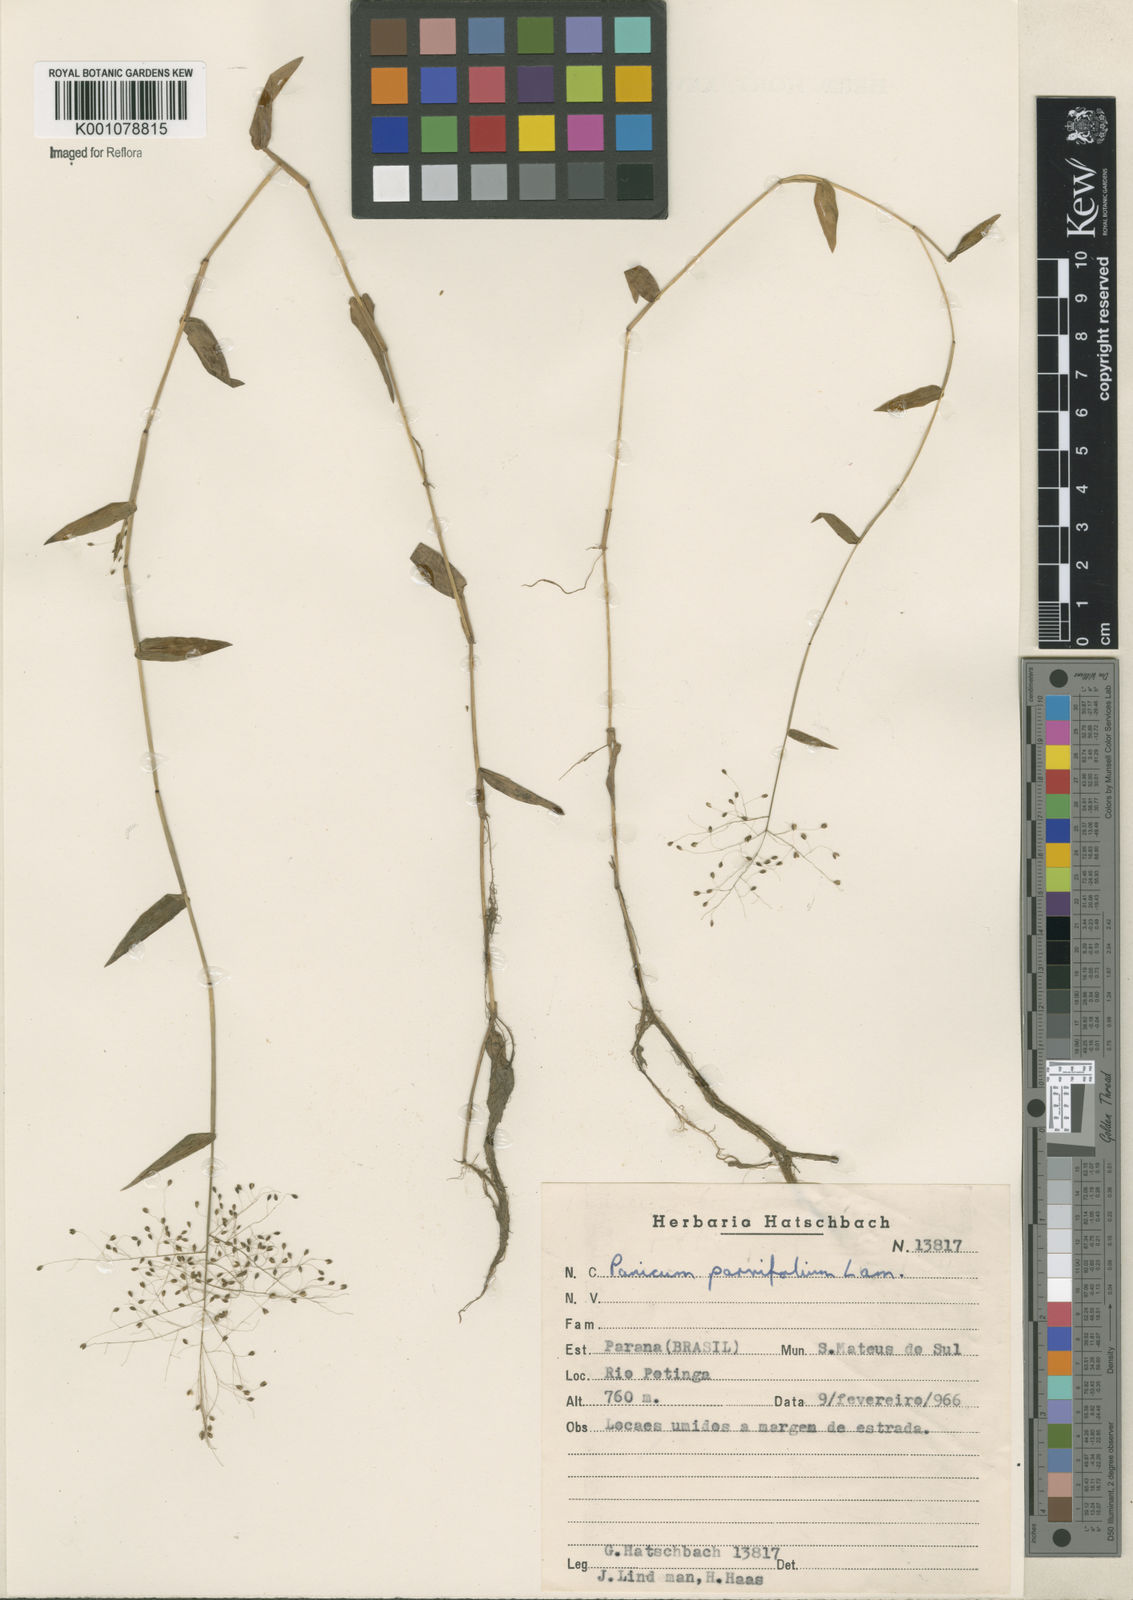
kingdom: Plantae
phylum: Tracheophyta
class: Liliopsida
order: Poales
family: Poaceae
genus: Trichanthecium
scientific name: Trichanthecium schwackeanum
